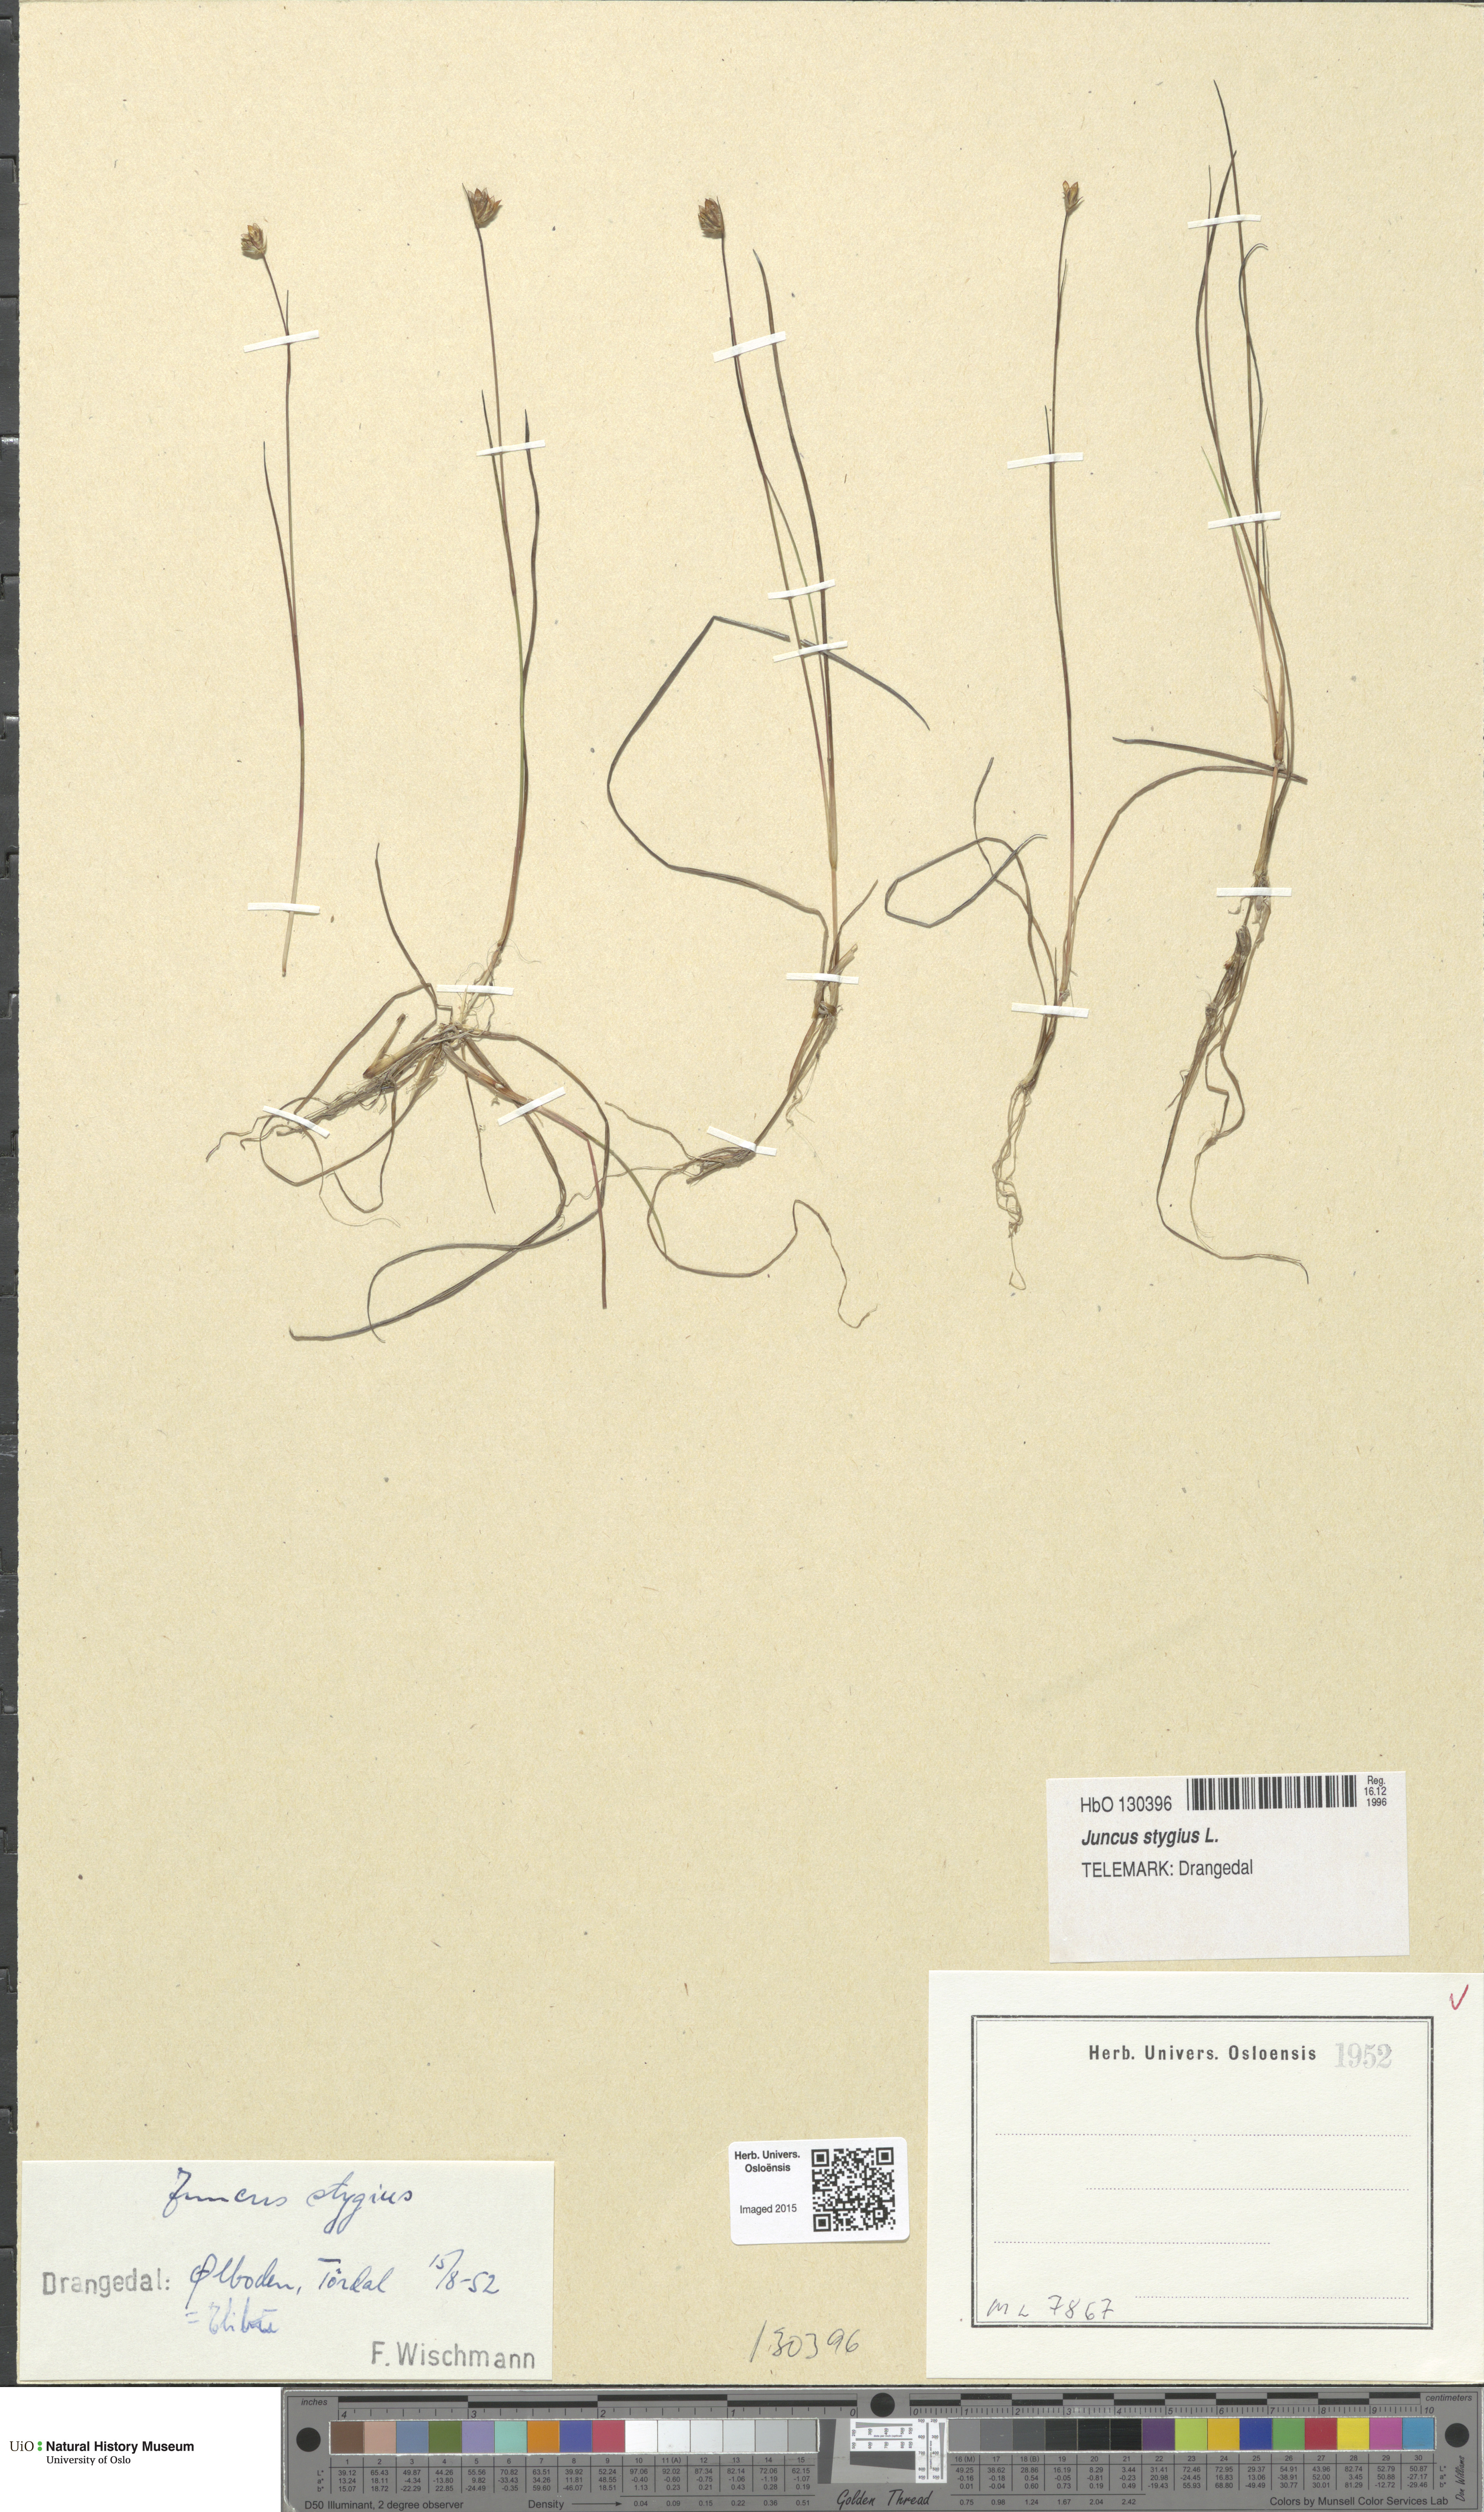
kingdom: Plantae
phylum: Tracheophyta
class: Liliopsida
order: Poales
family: Juncaceae
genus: Juncus
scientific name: Juncus stygius
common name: Bog rush
